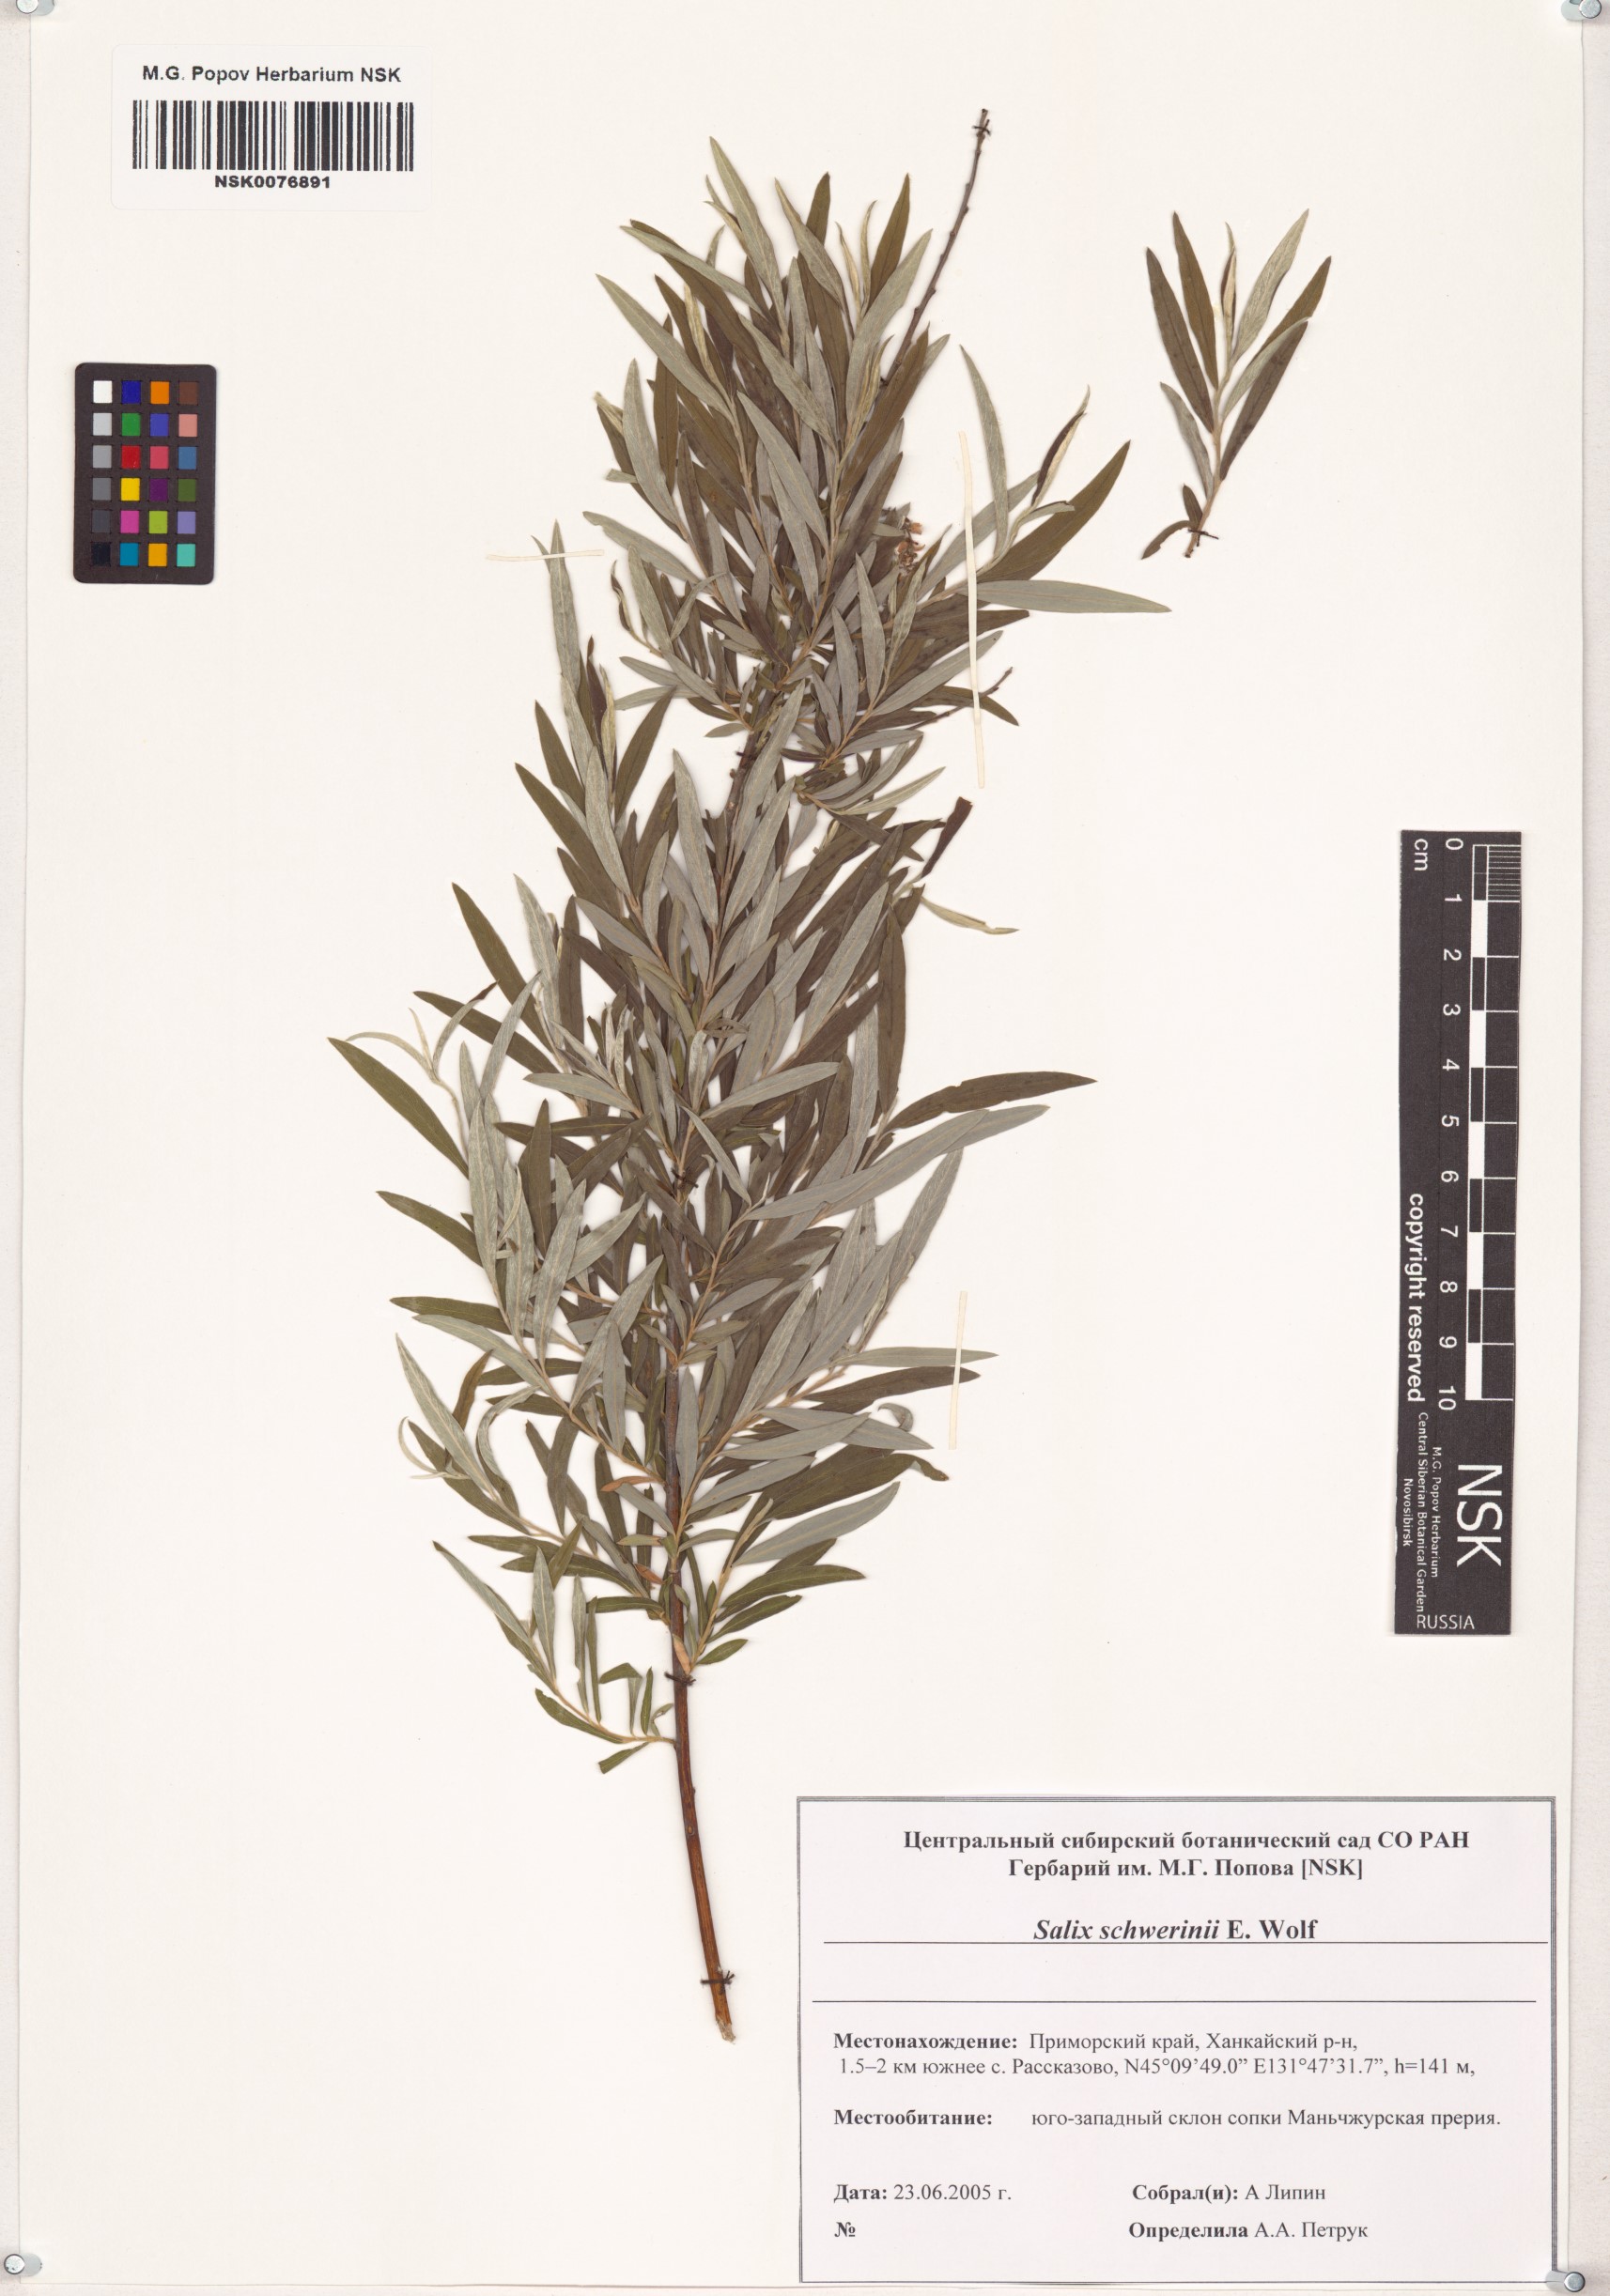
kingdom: Plantae
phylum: Tracheophyta
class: Magnoliopsida
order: Malpighiales
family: Salicaceae
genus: Salix
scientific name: Salix schwerinii
